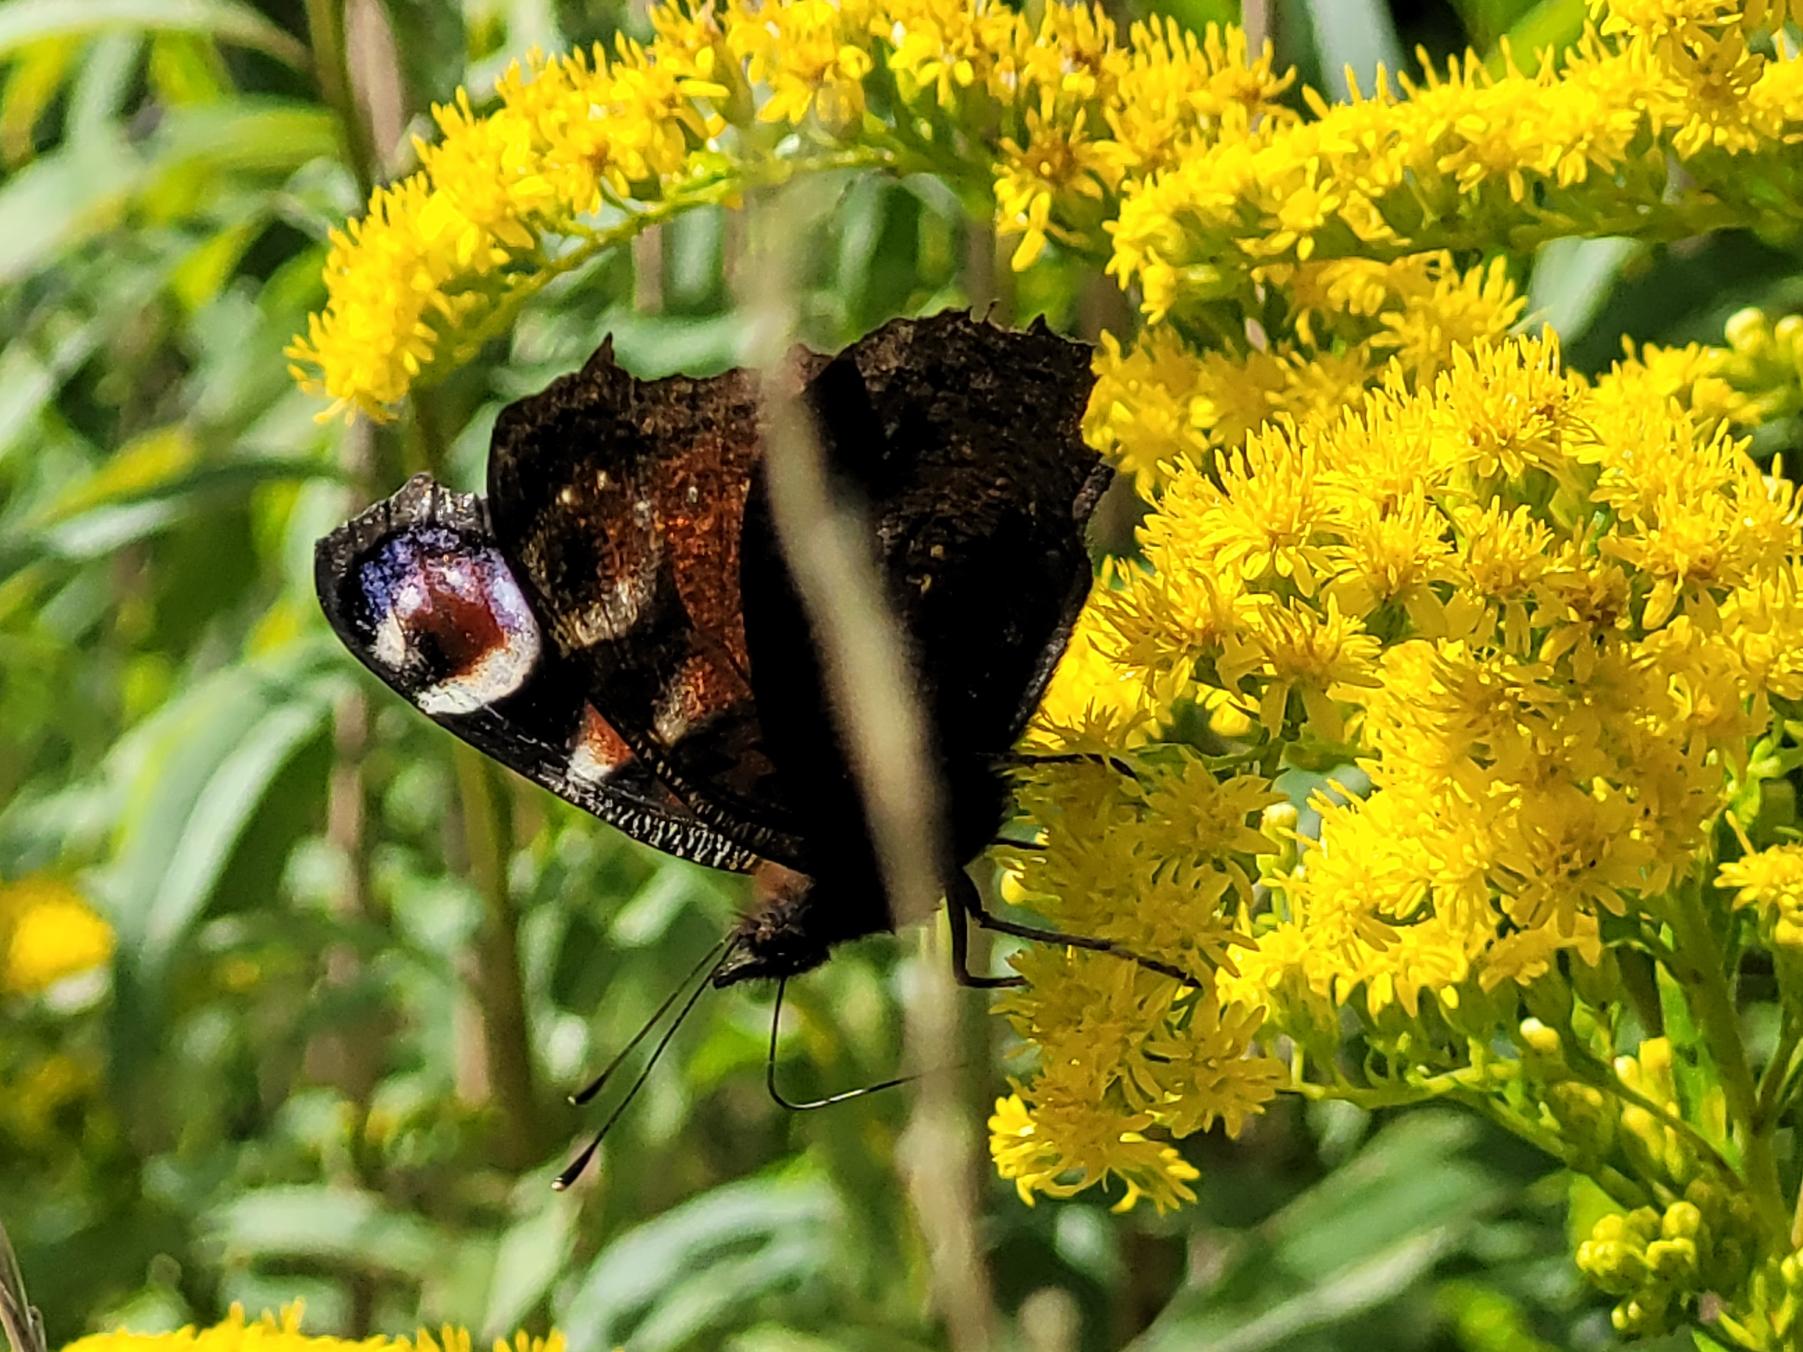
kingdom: Animalia
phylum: Arthropoda
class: Insecta
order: Lepidoptera
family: Nymphalidae
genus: Aglais
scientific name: Aglais io
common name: Dagpåfugleøje
